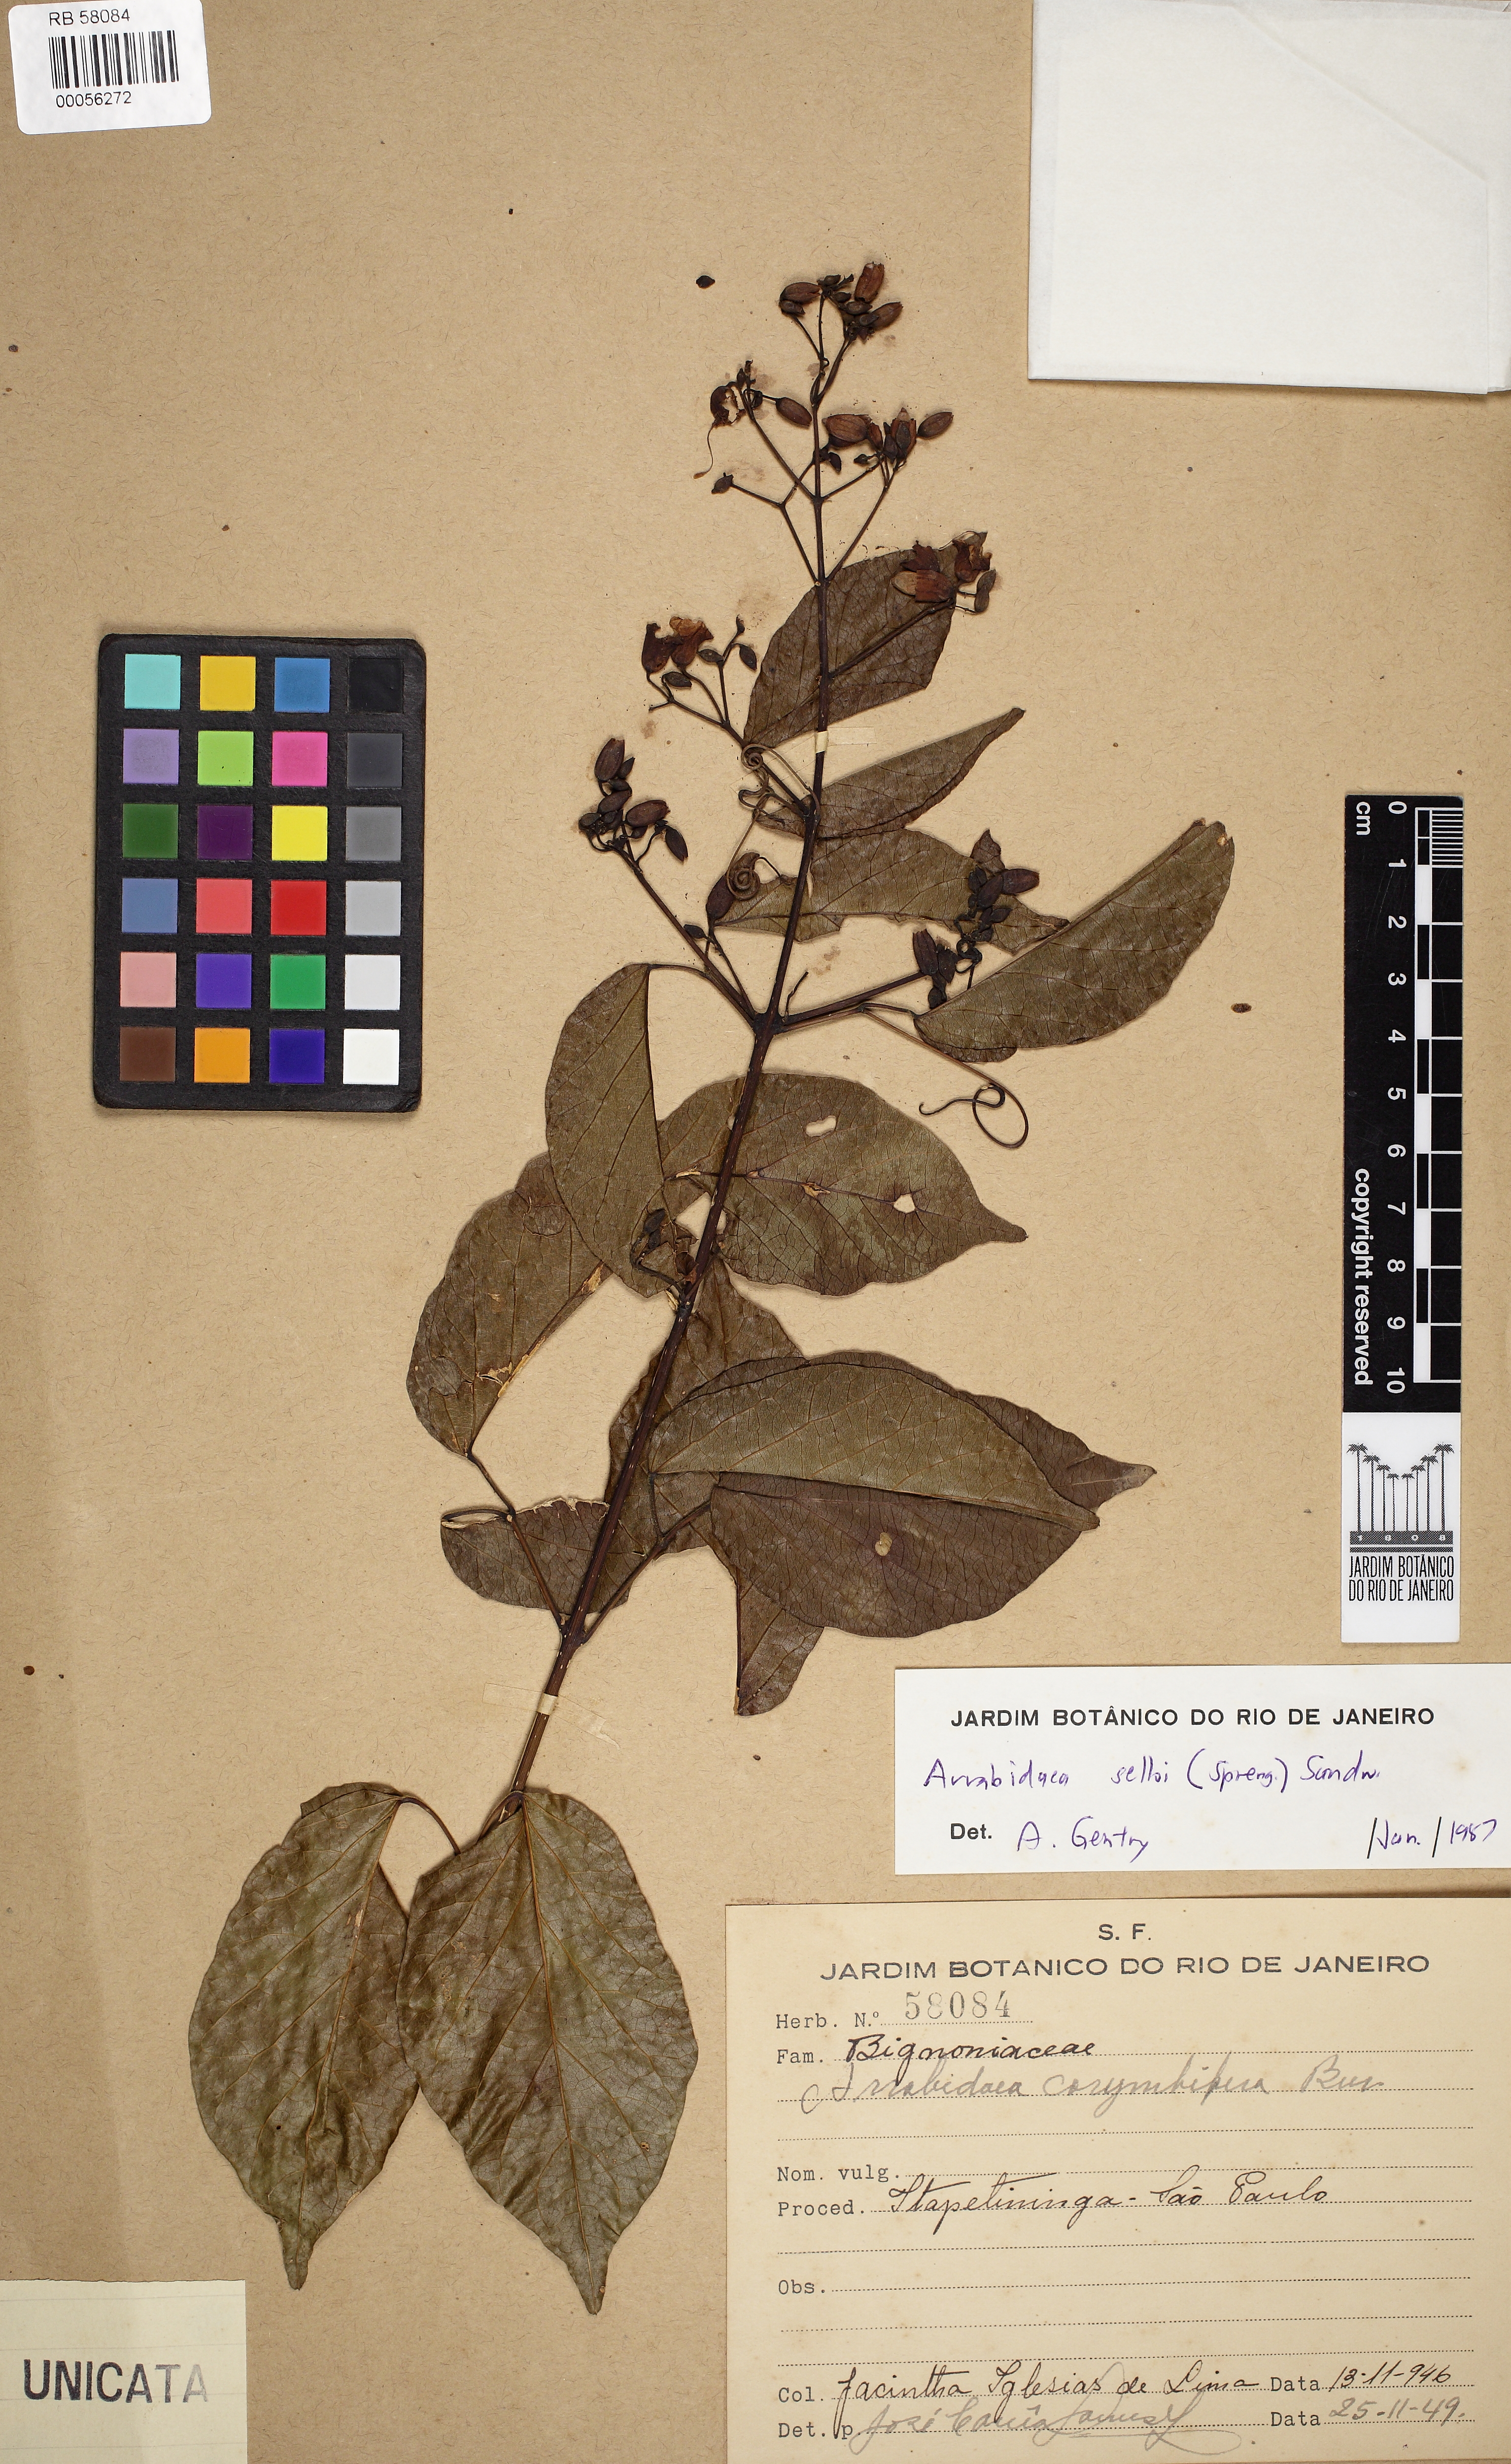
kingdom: Plantae
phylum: Tracheophyta
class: Magnoliopsida
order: Lamiales
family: Bignoniaceae
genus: Tanaecium
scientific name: Tanaecium selloi
